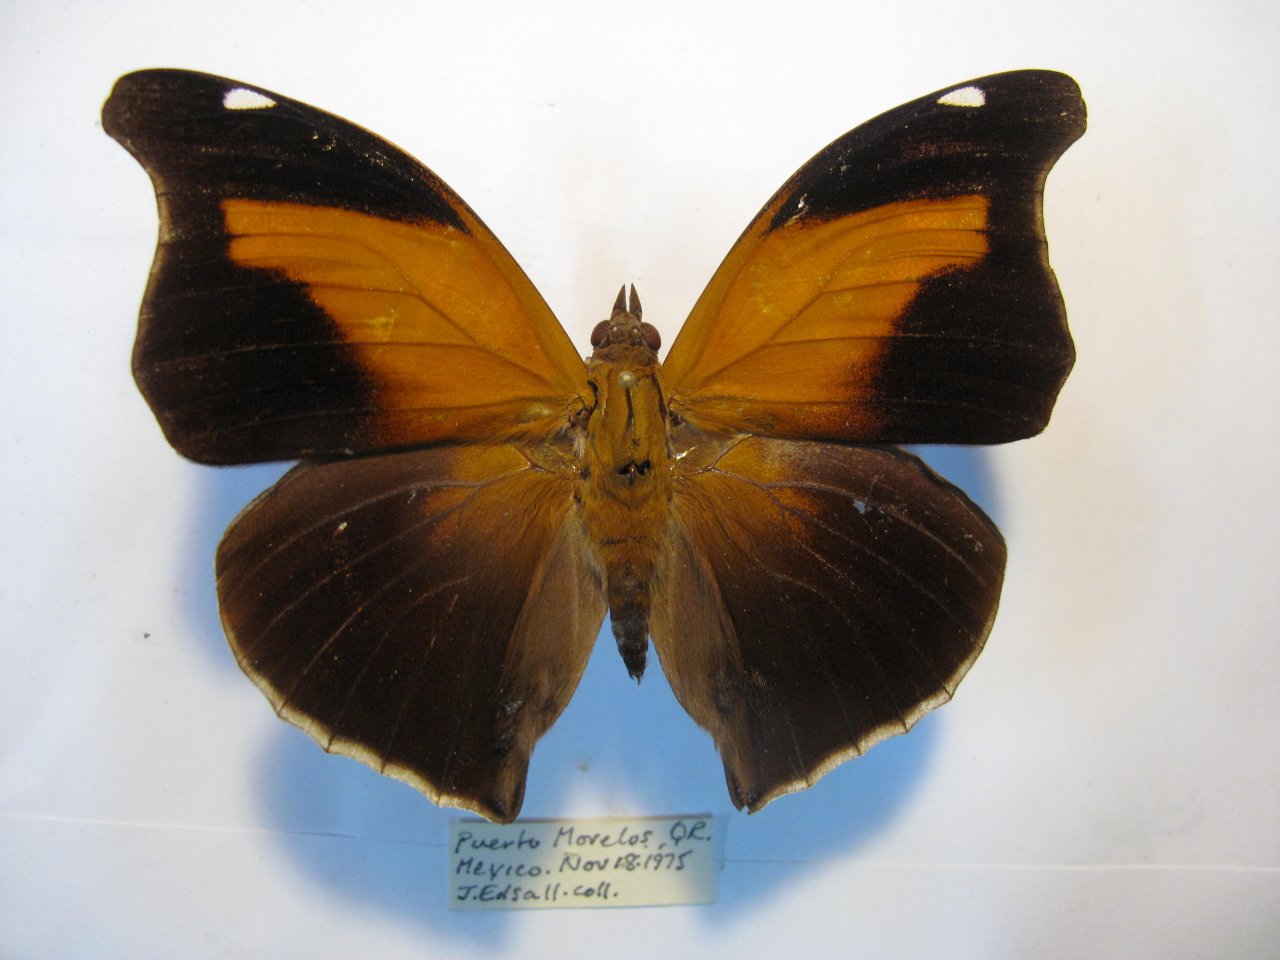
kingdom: Animalia
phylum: Arthropoda
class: Insecta
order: Lepidoptera
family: Nymphalidae
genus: Historis
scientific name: Historis odius
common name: Orion Cecropian
